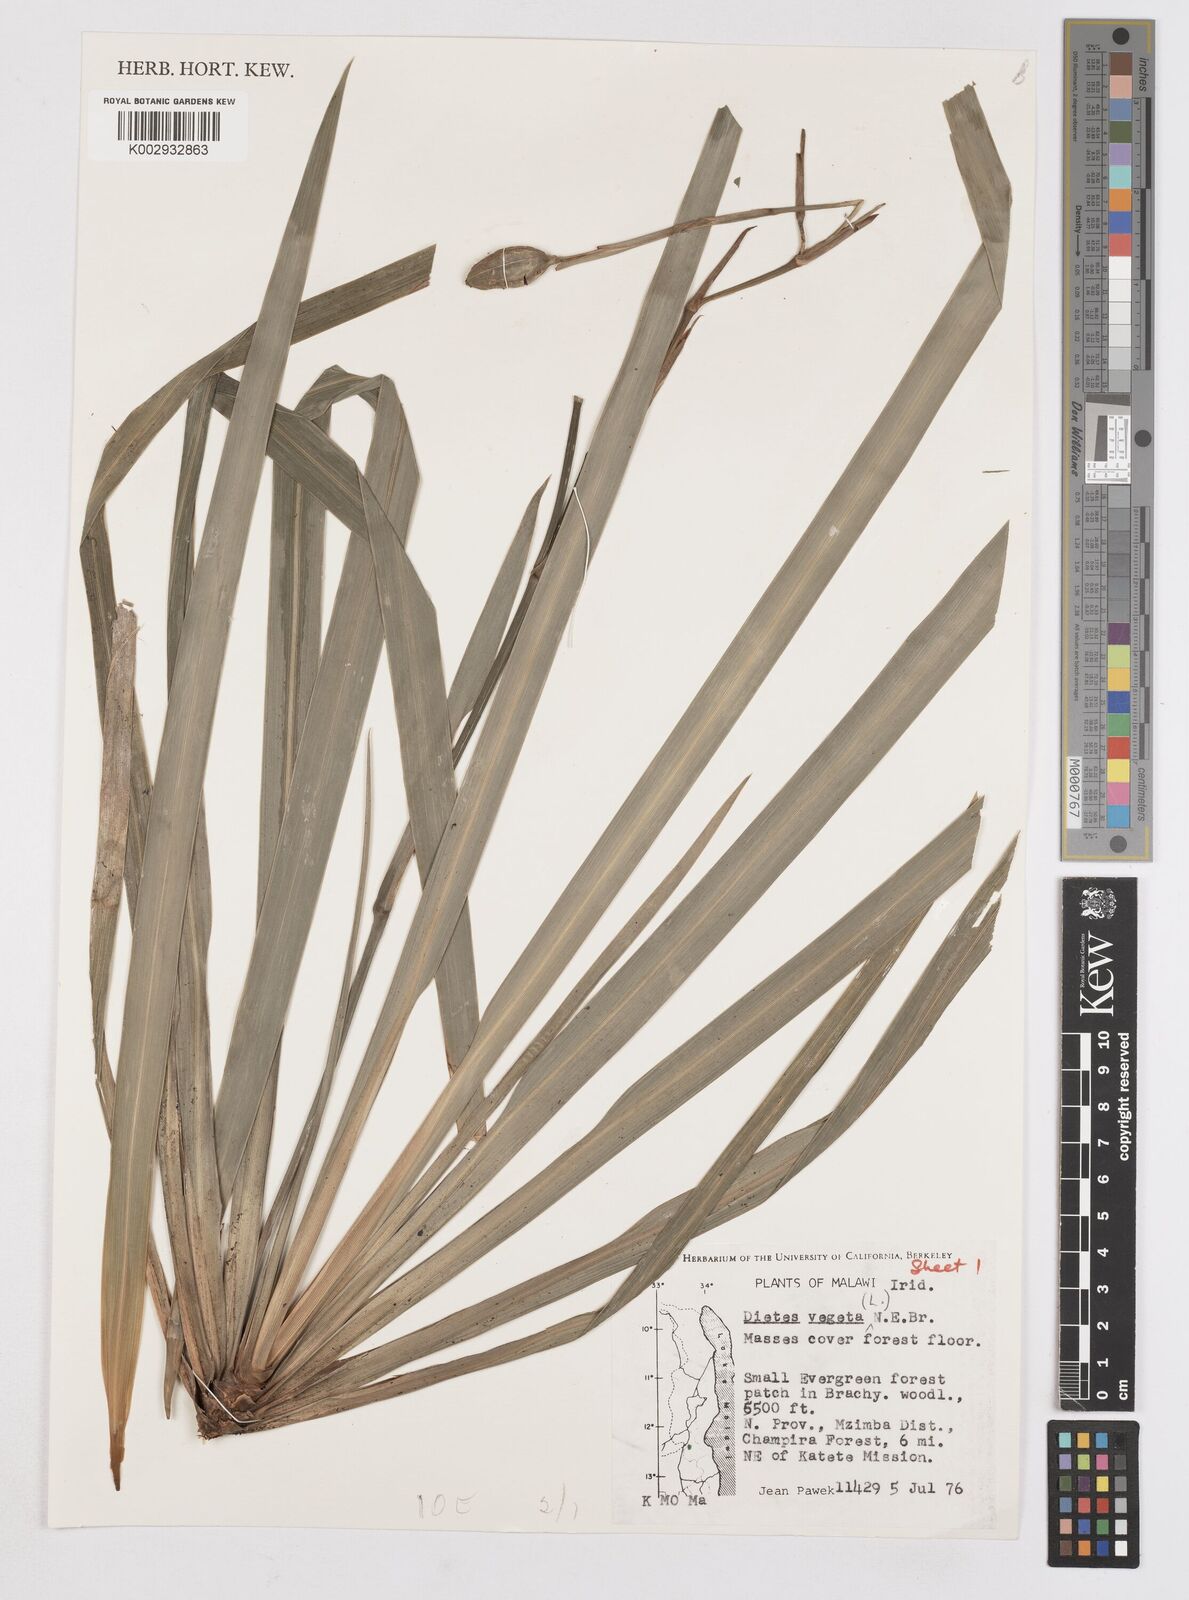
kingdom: Plantae
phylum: Tracheophyta
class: Liliopsida
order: Asparagales
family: Iridaceae
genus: Dietes
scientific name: Dietes iridioides
